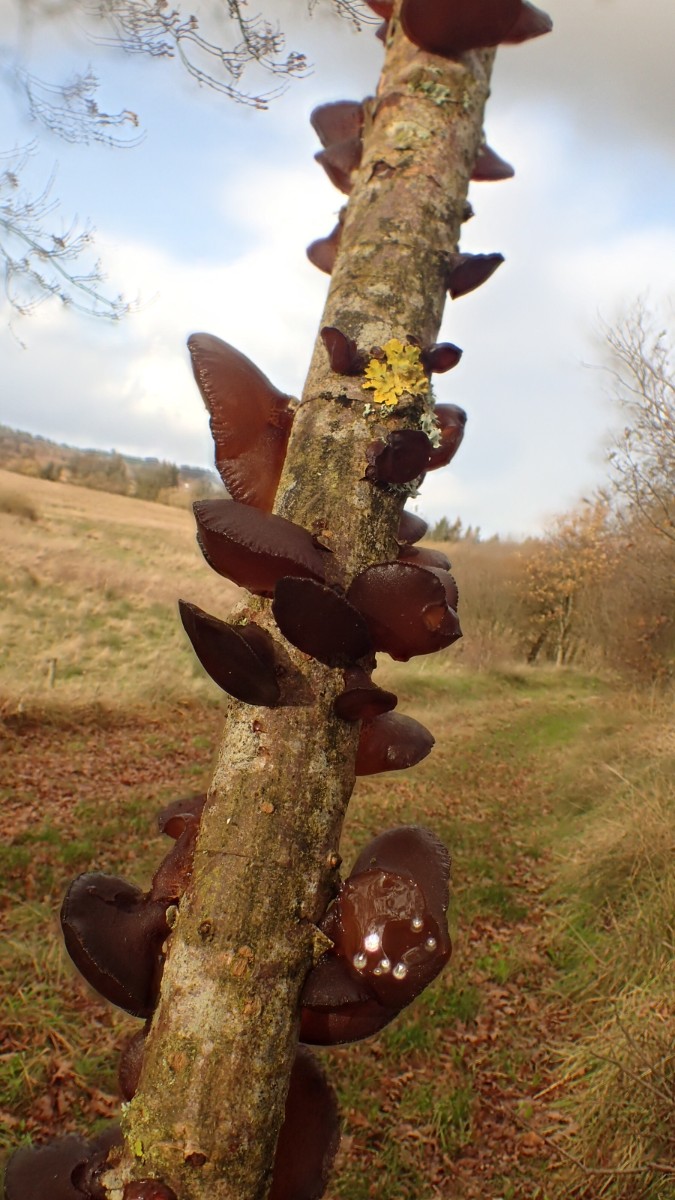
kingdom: Fungi
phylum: Basidiomycota
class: Agaricomycetes
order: Auriculariales
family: Auriculariaceae
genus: Exidia
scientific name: Exidia recisa
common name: pile-bævretop
